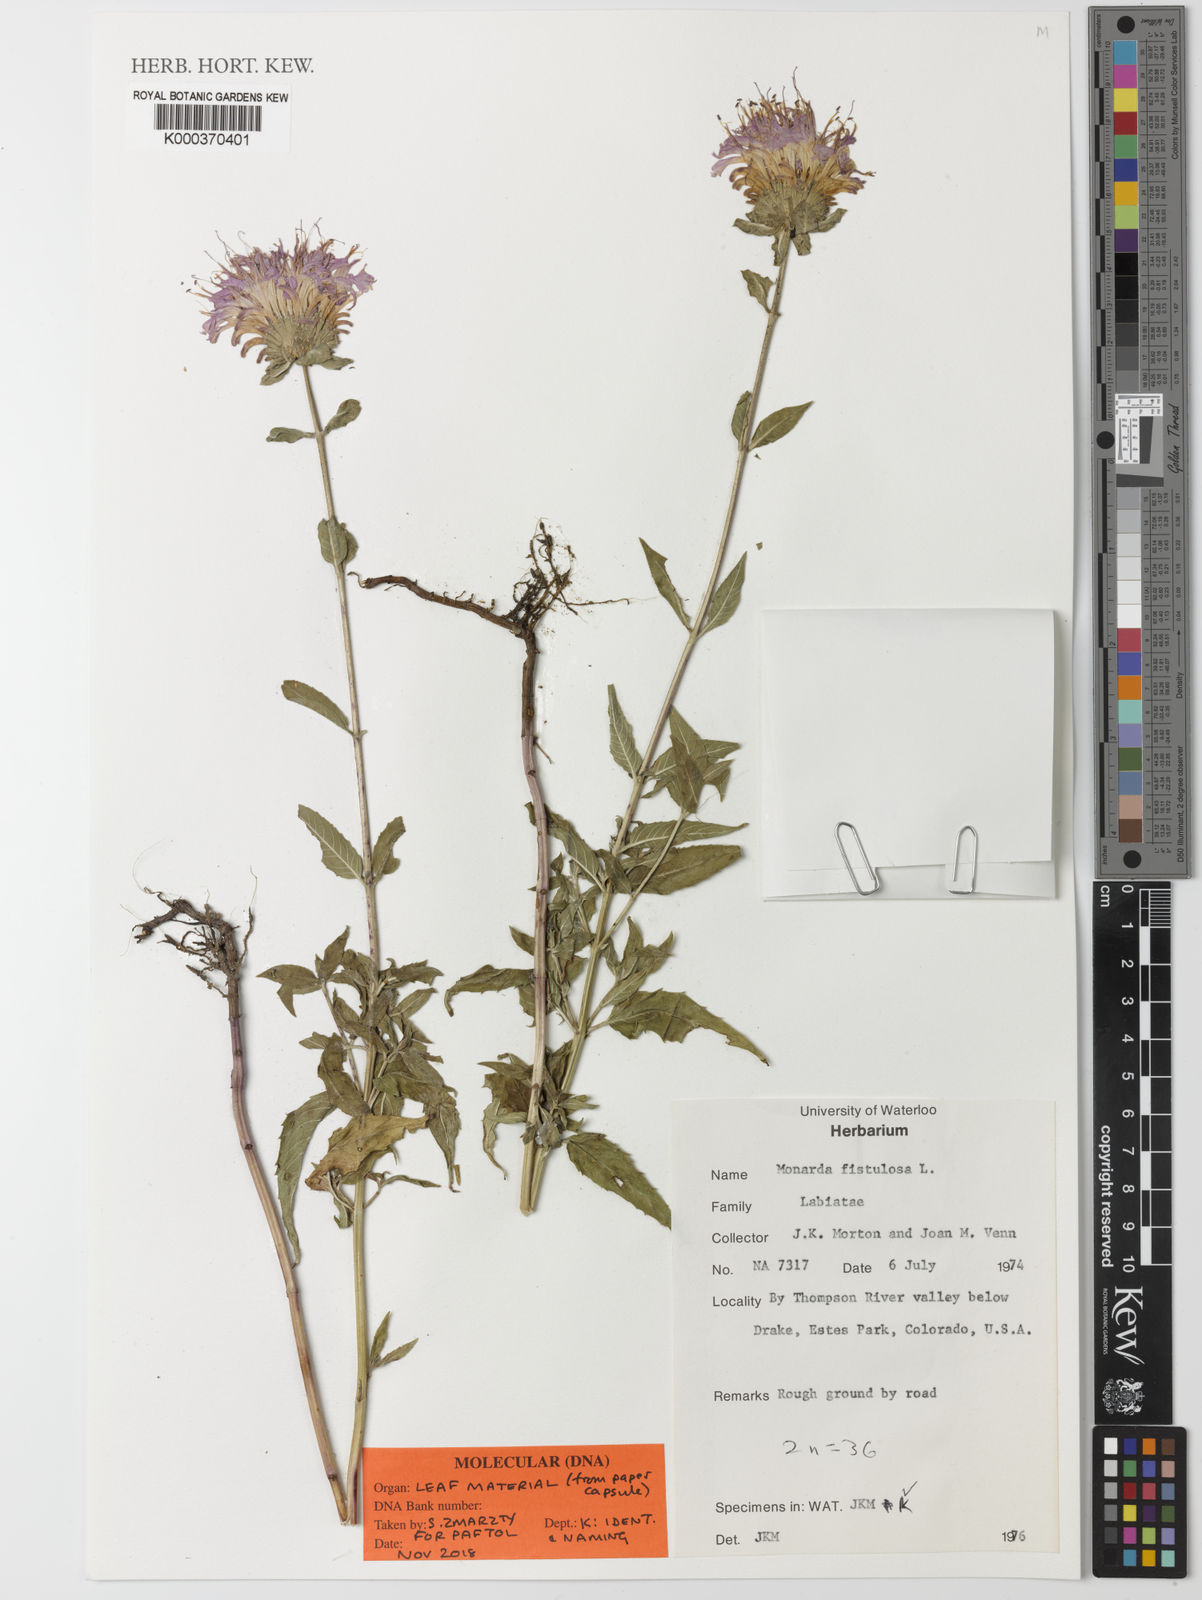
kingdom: Plantae
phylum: Tracheophyta
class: Magnoliopsida
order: Lamiales
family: Lamiaceae
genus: Monarda
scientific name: Monarda fistulosa
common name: Purple beebalm
